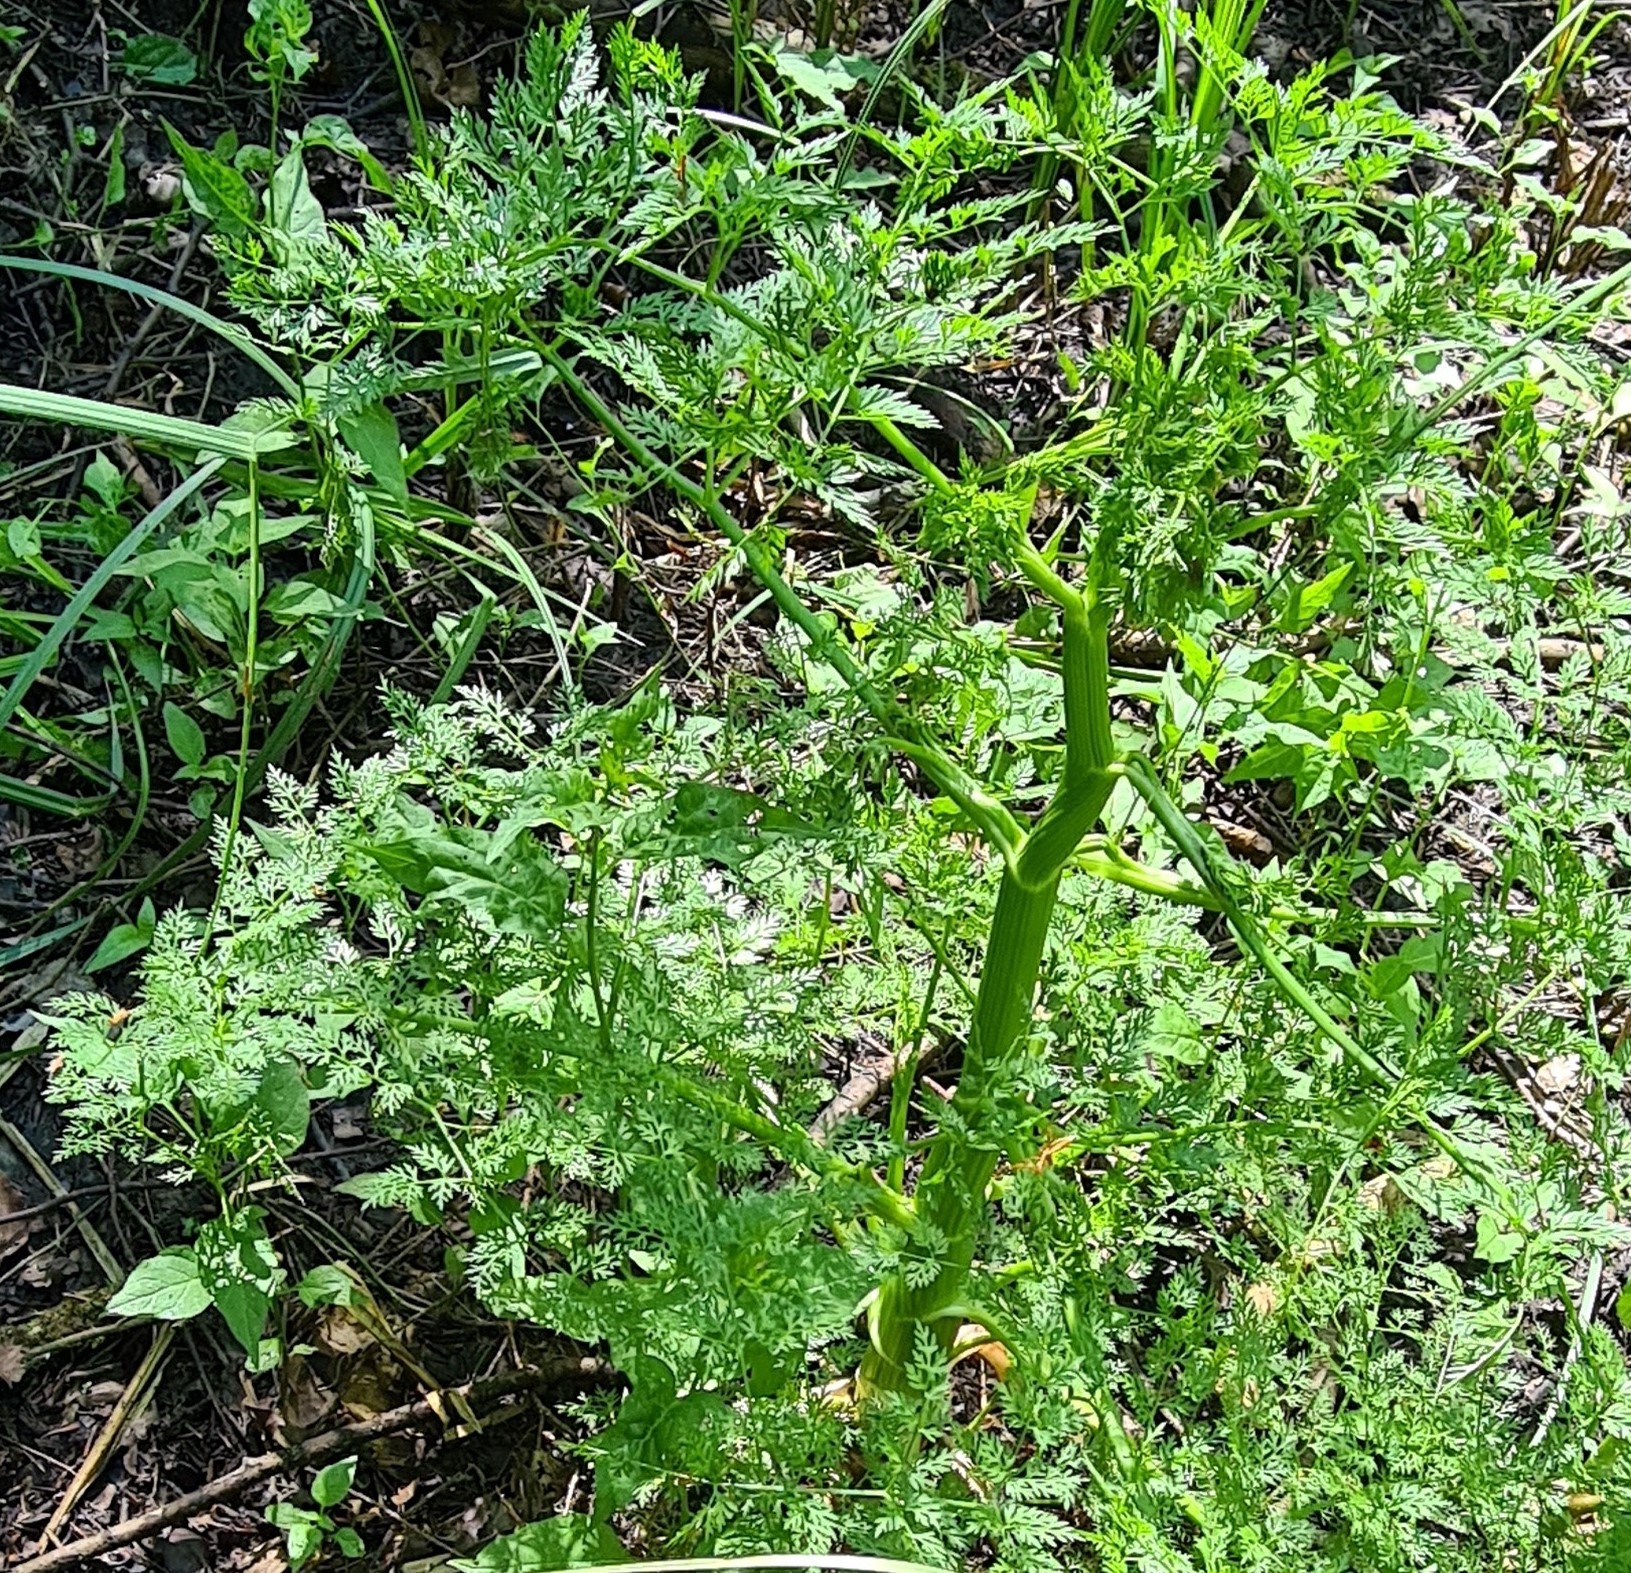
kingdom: Plantae
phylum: Tracheophyta
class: Magnoliopsida
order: Apiales
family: Apiaceae
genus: Oenanthe
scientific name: Oenanthe aquatica
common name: Billebo-klaseskærm
